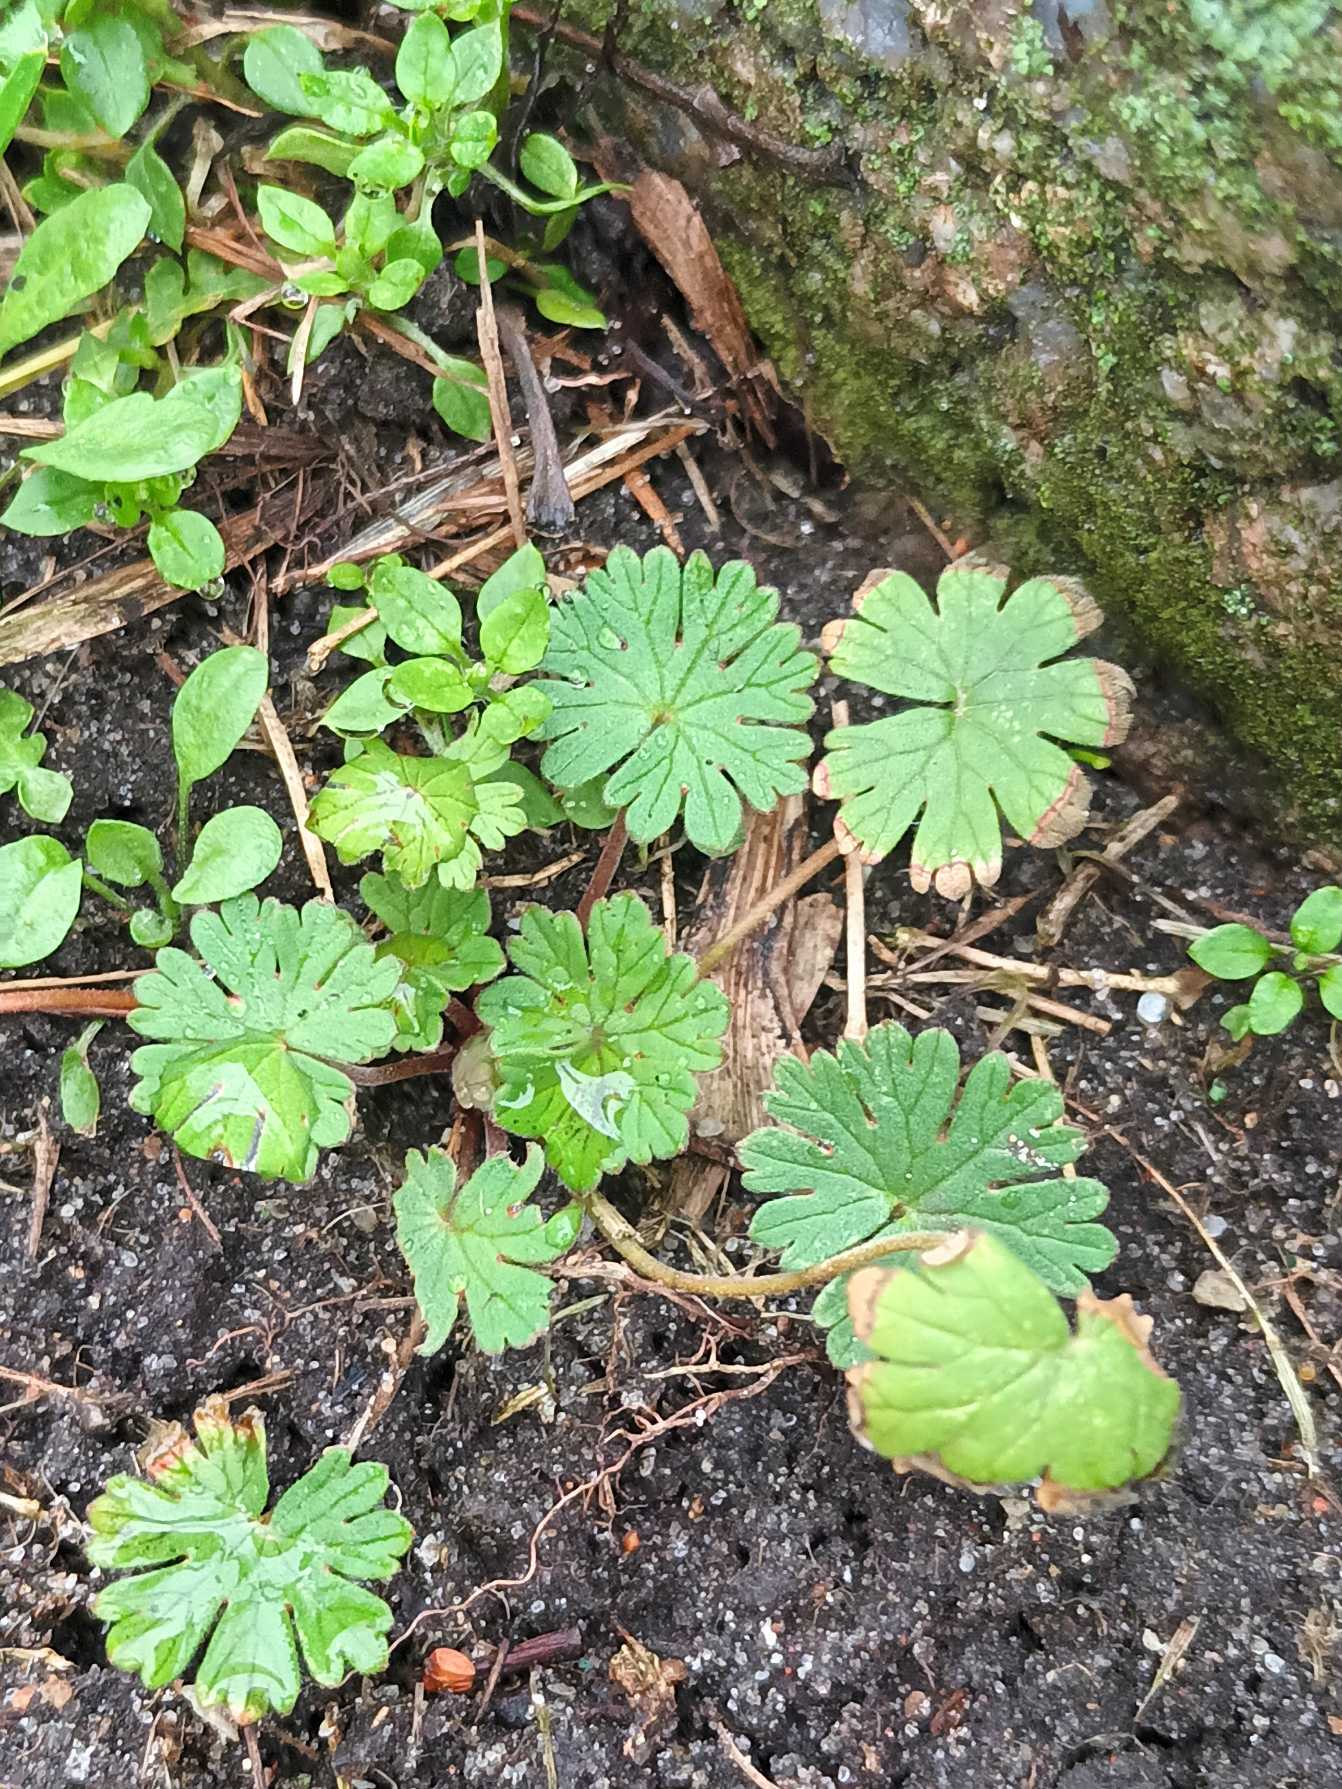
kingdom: Plantae
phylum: Tracheophyta
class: Magnoliopsida
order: Geraniales
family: Geraniaceae
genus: Geranium
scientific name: Geranium pusillum
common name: Liden storkenæb
